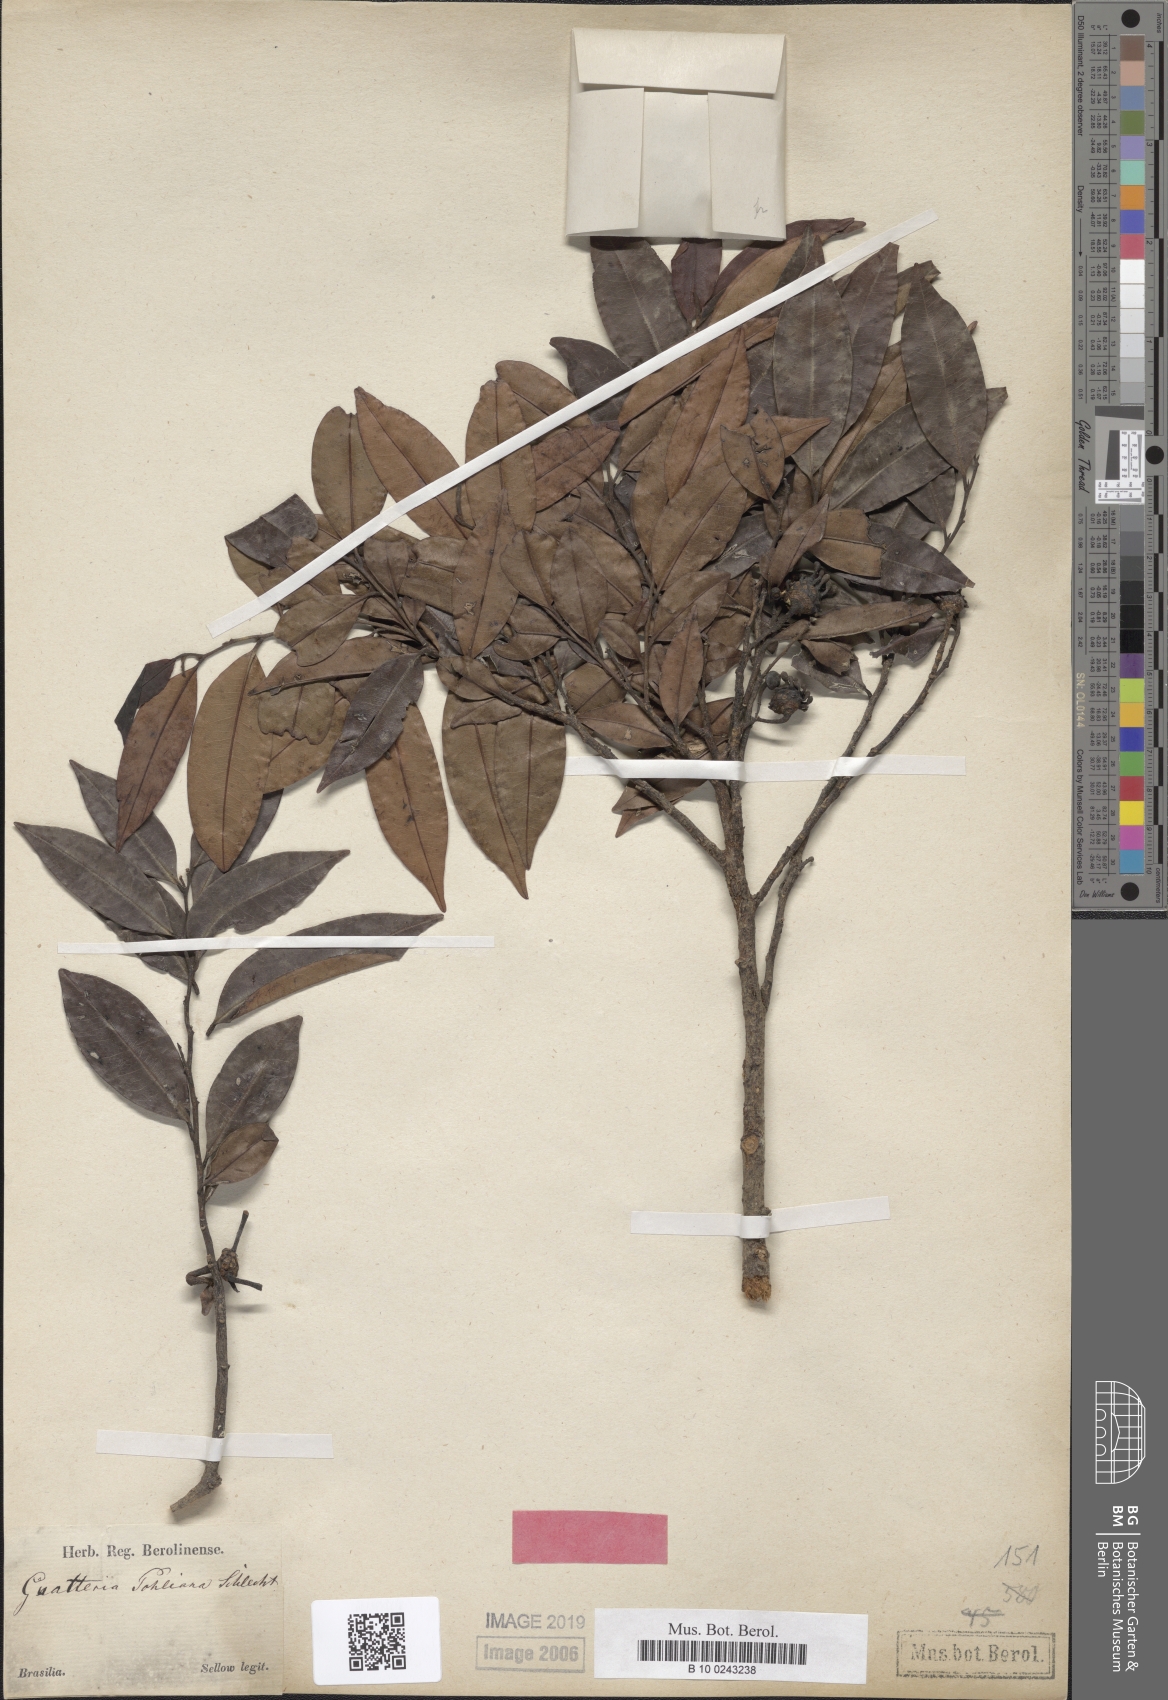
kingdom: Plantae
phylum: Tracheophyta
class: Magnoliopsida
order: Magnoliales
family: Annonaceae
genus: Guatteria
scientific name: Guatteria pohliana
